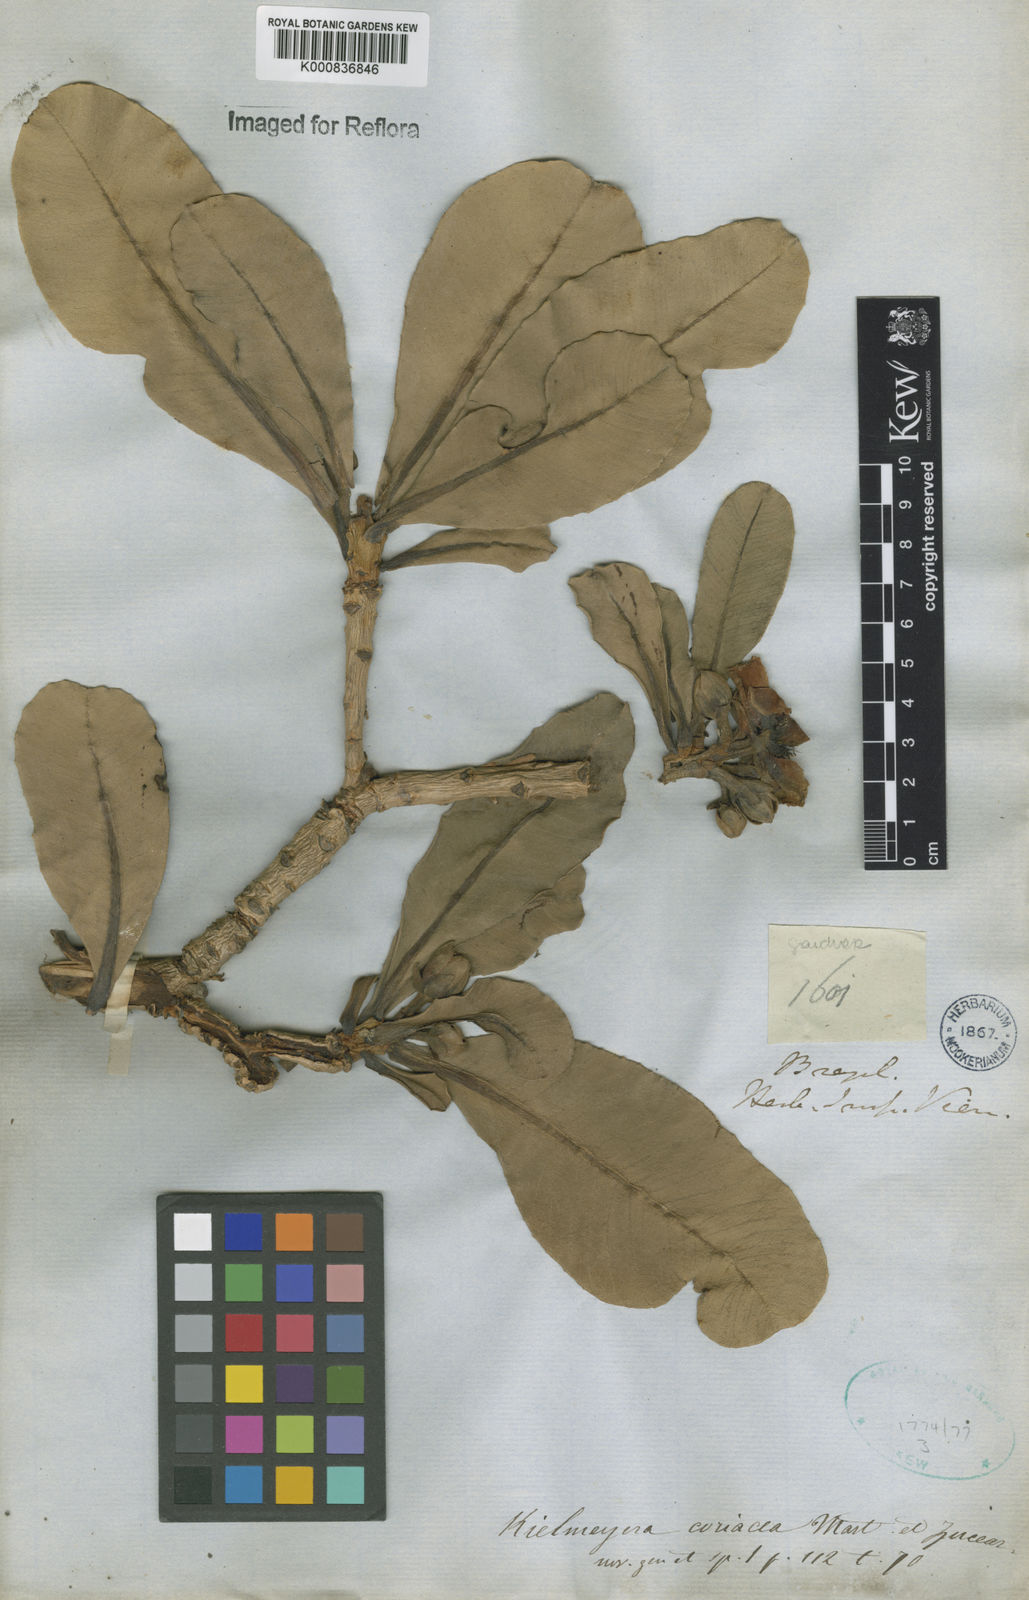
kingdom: Plantae
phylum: Tracheophyta
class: Magnoliopsida
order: Malpighiales
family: Calophyllaceae
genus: Kielmeyera
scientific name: Kielmeyera coriacea
